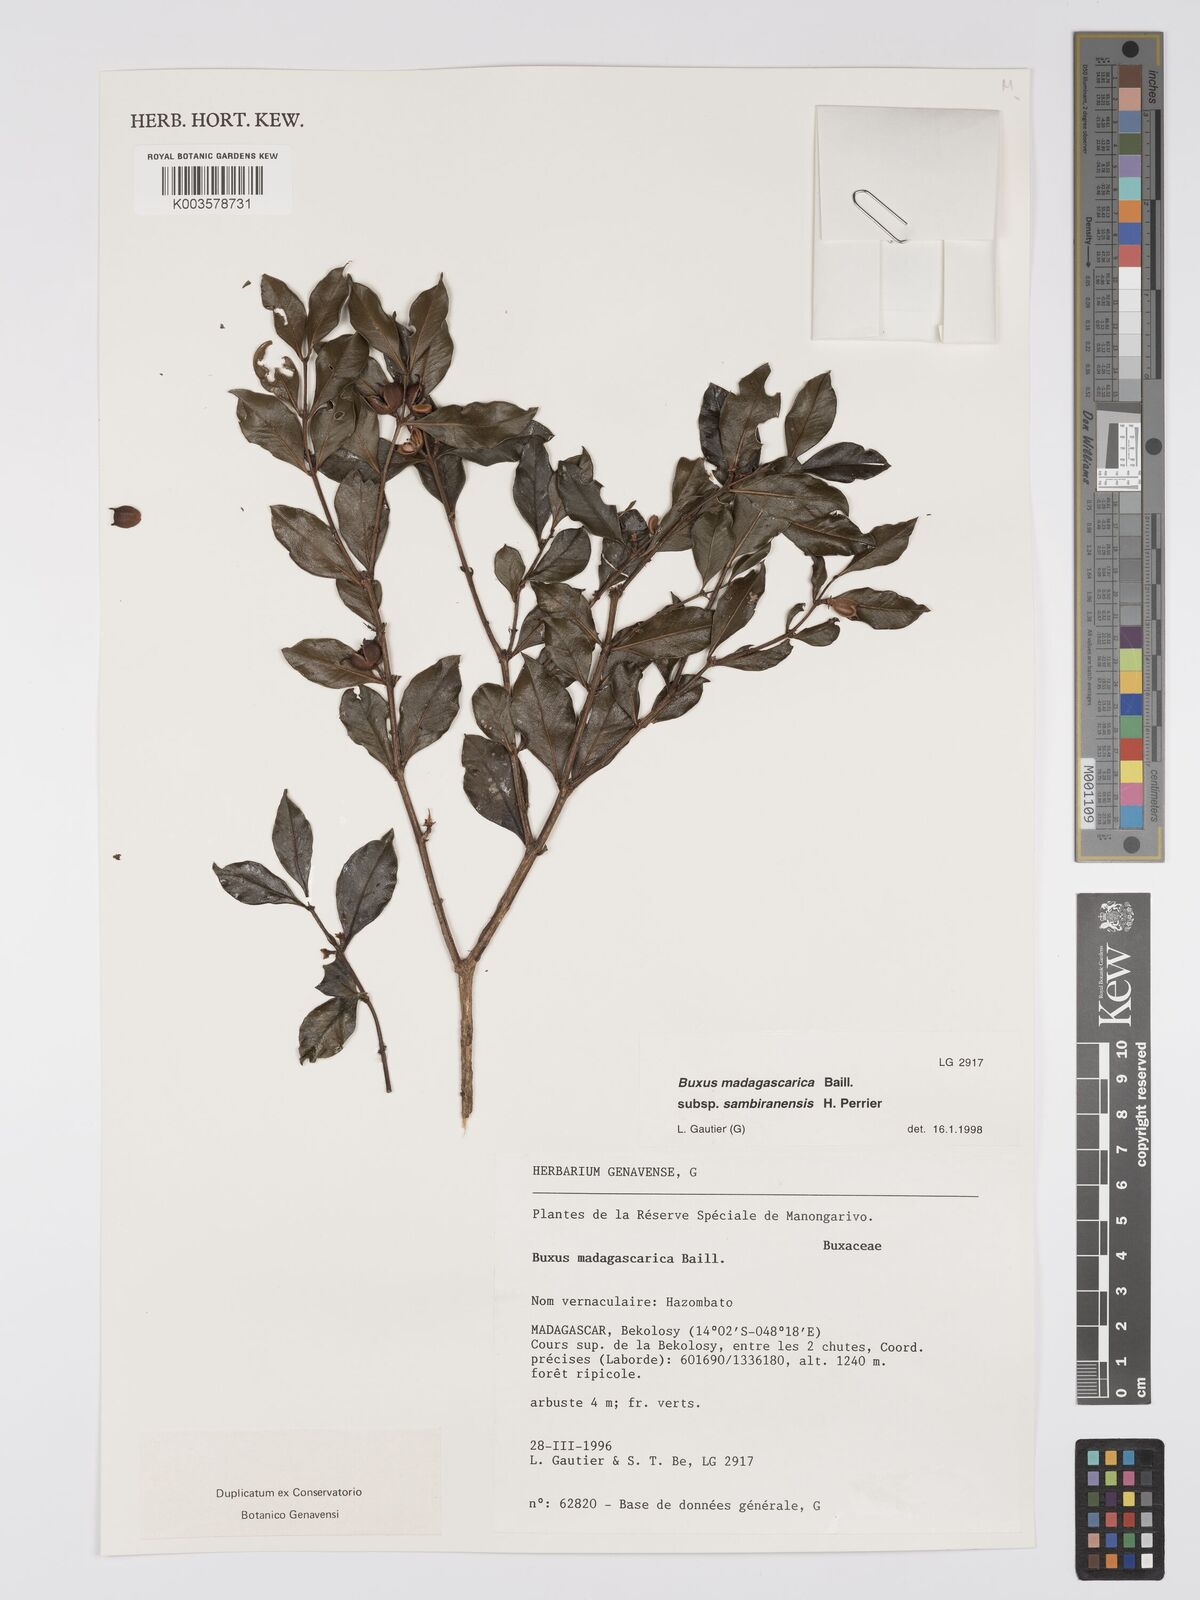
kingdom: Plantae
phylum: Tracheophyta
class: Magnoliopsida
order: Buxales
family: Buxaceae
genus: Buxus
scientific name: Buxus madagascarica
